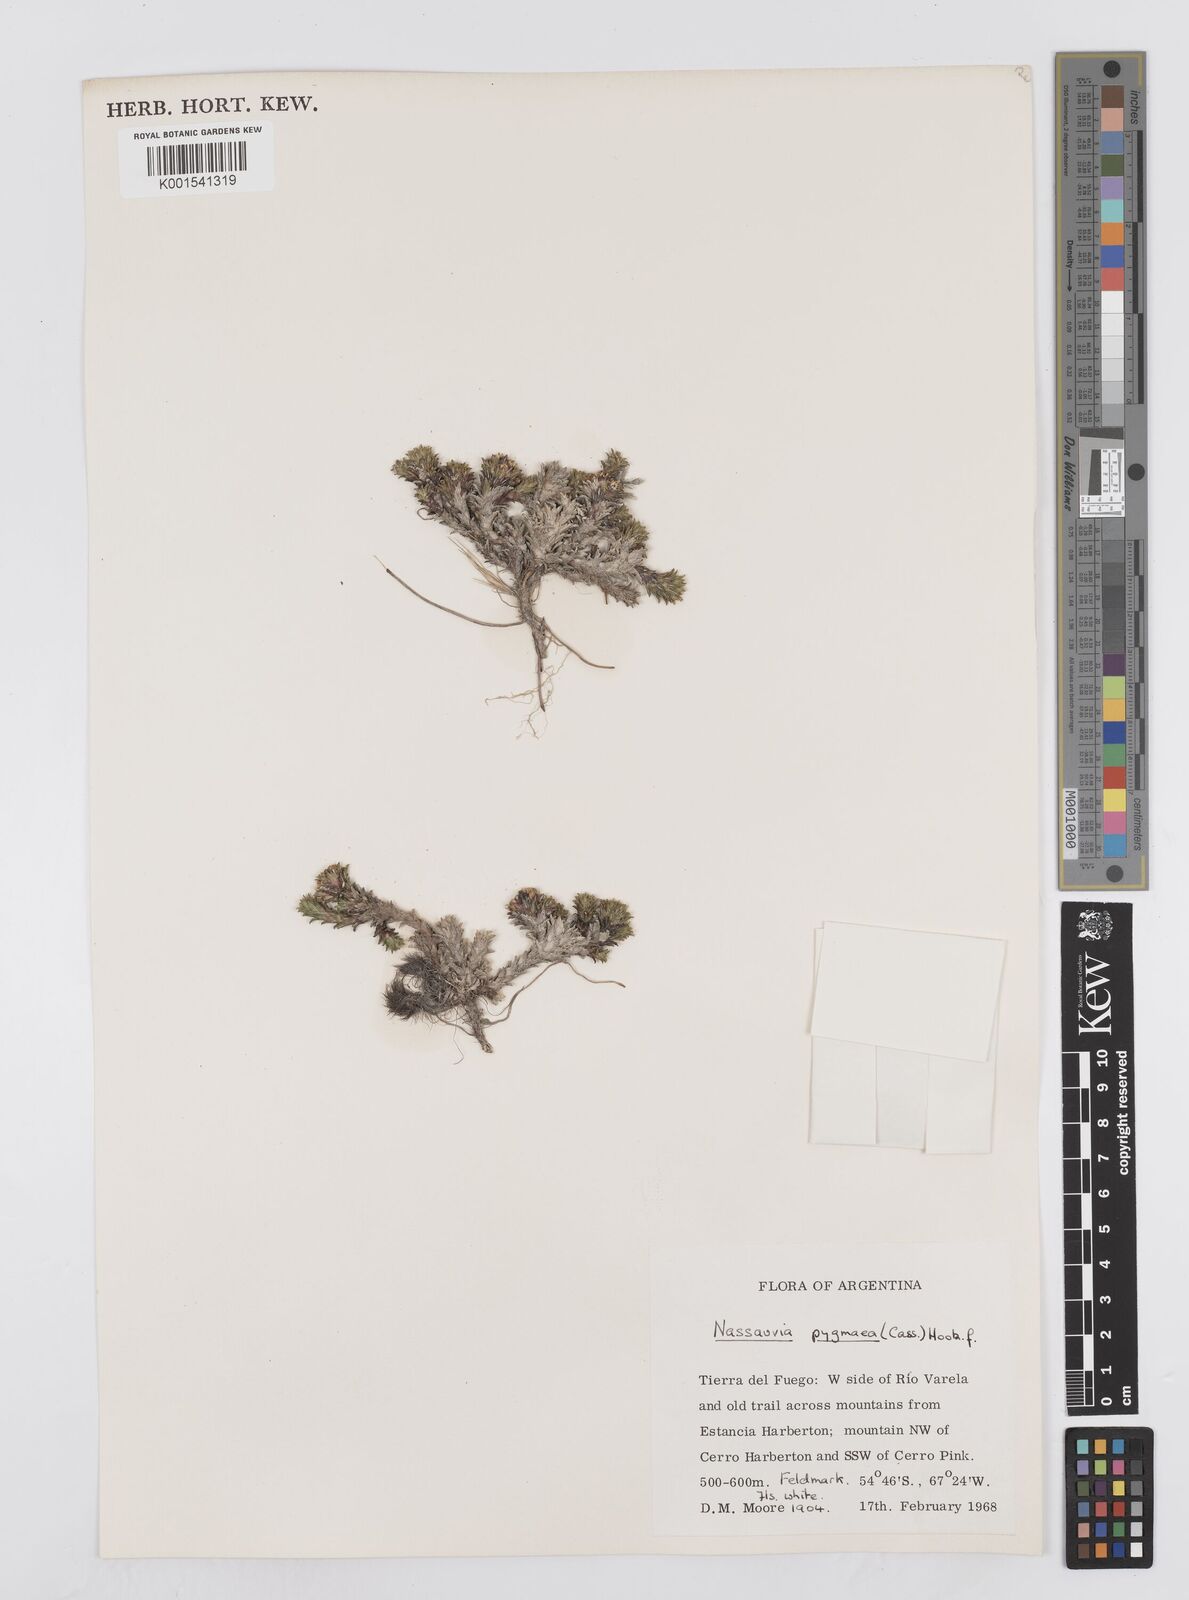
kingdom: Plantae
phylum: Tracheophyta
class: Magnoliopsida
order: Asterales
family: Asteraceae
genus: Nassauvia
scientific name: Nassauvia pygmaea
